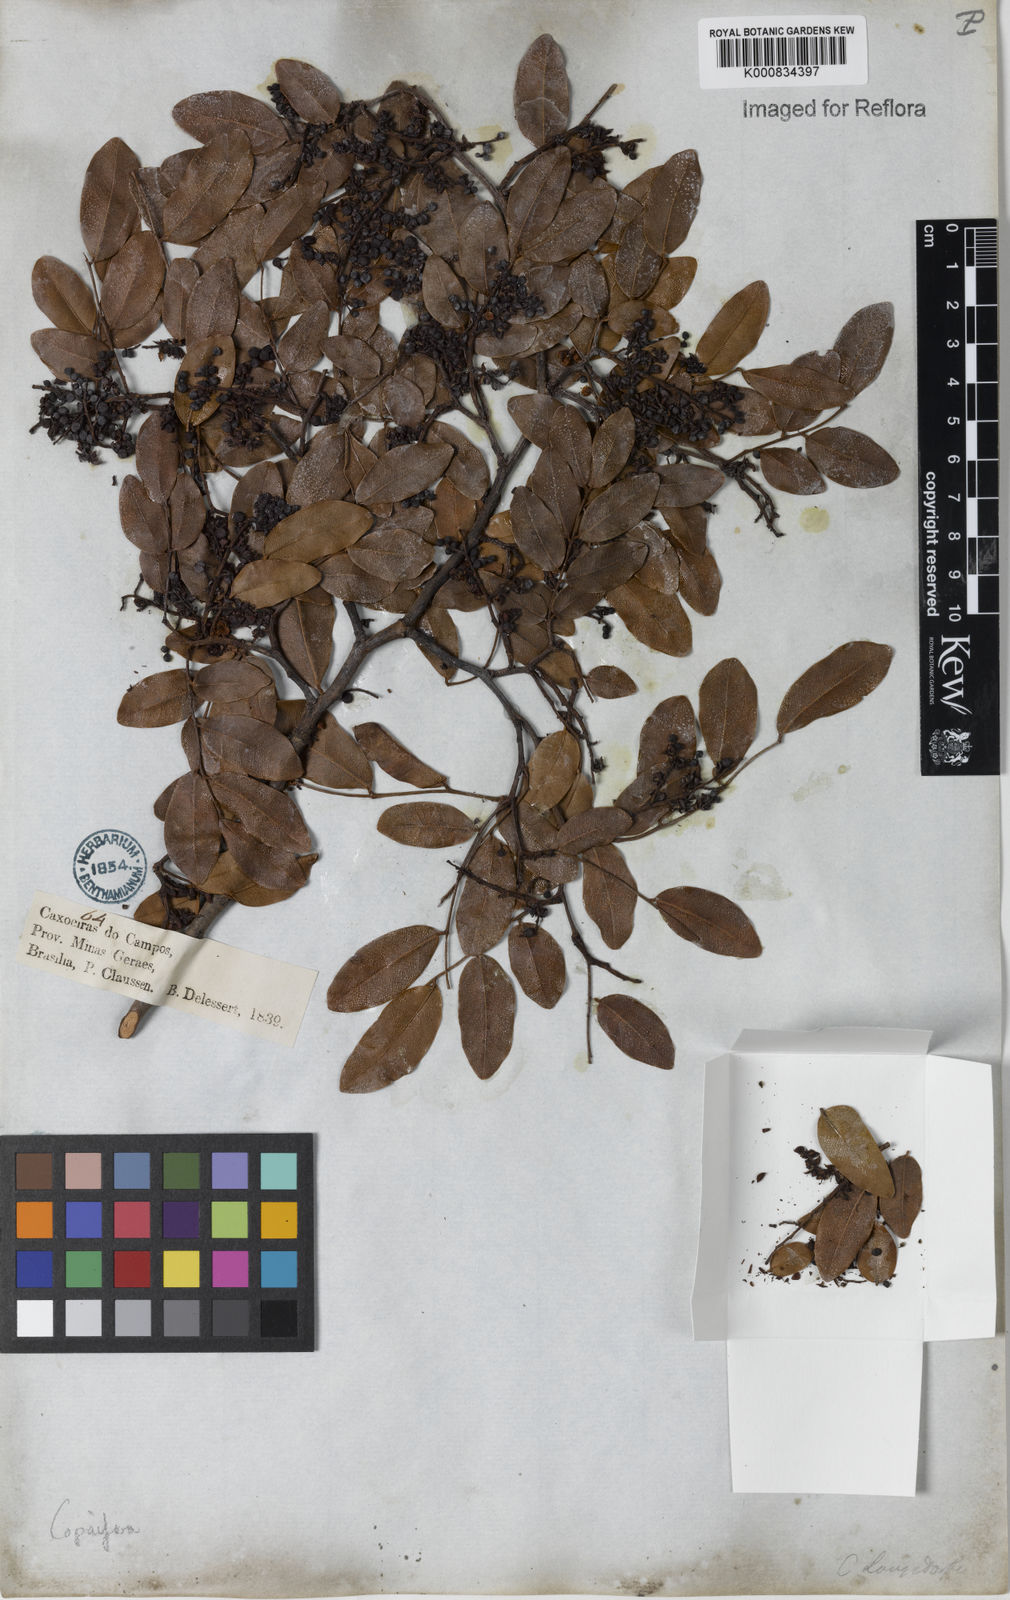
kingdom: Plantae
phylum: Tracheophyta
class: Magnoliopsida
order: Fabales
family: Fabaceae
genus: Copaifera
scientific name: Copaifera langsdorffii
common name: Brazilian diesel tree
